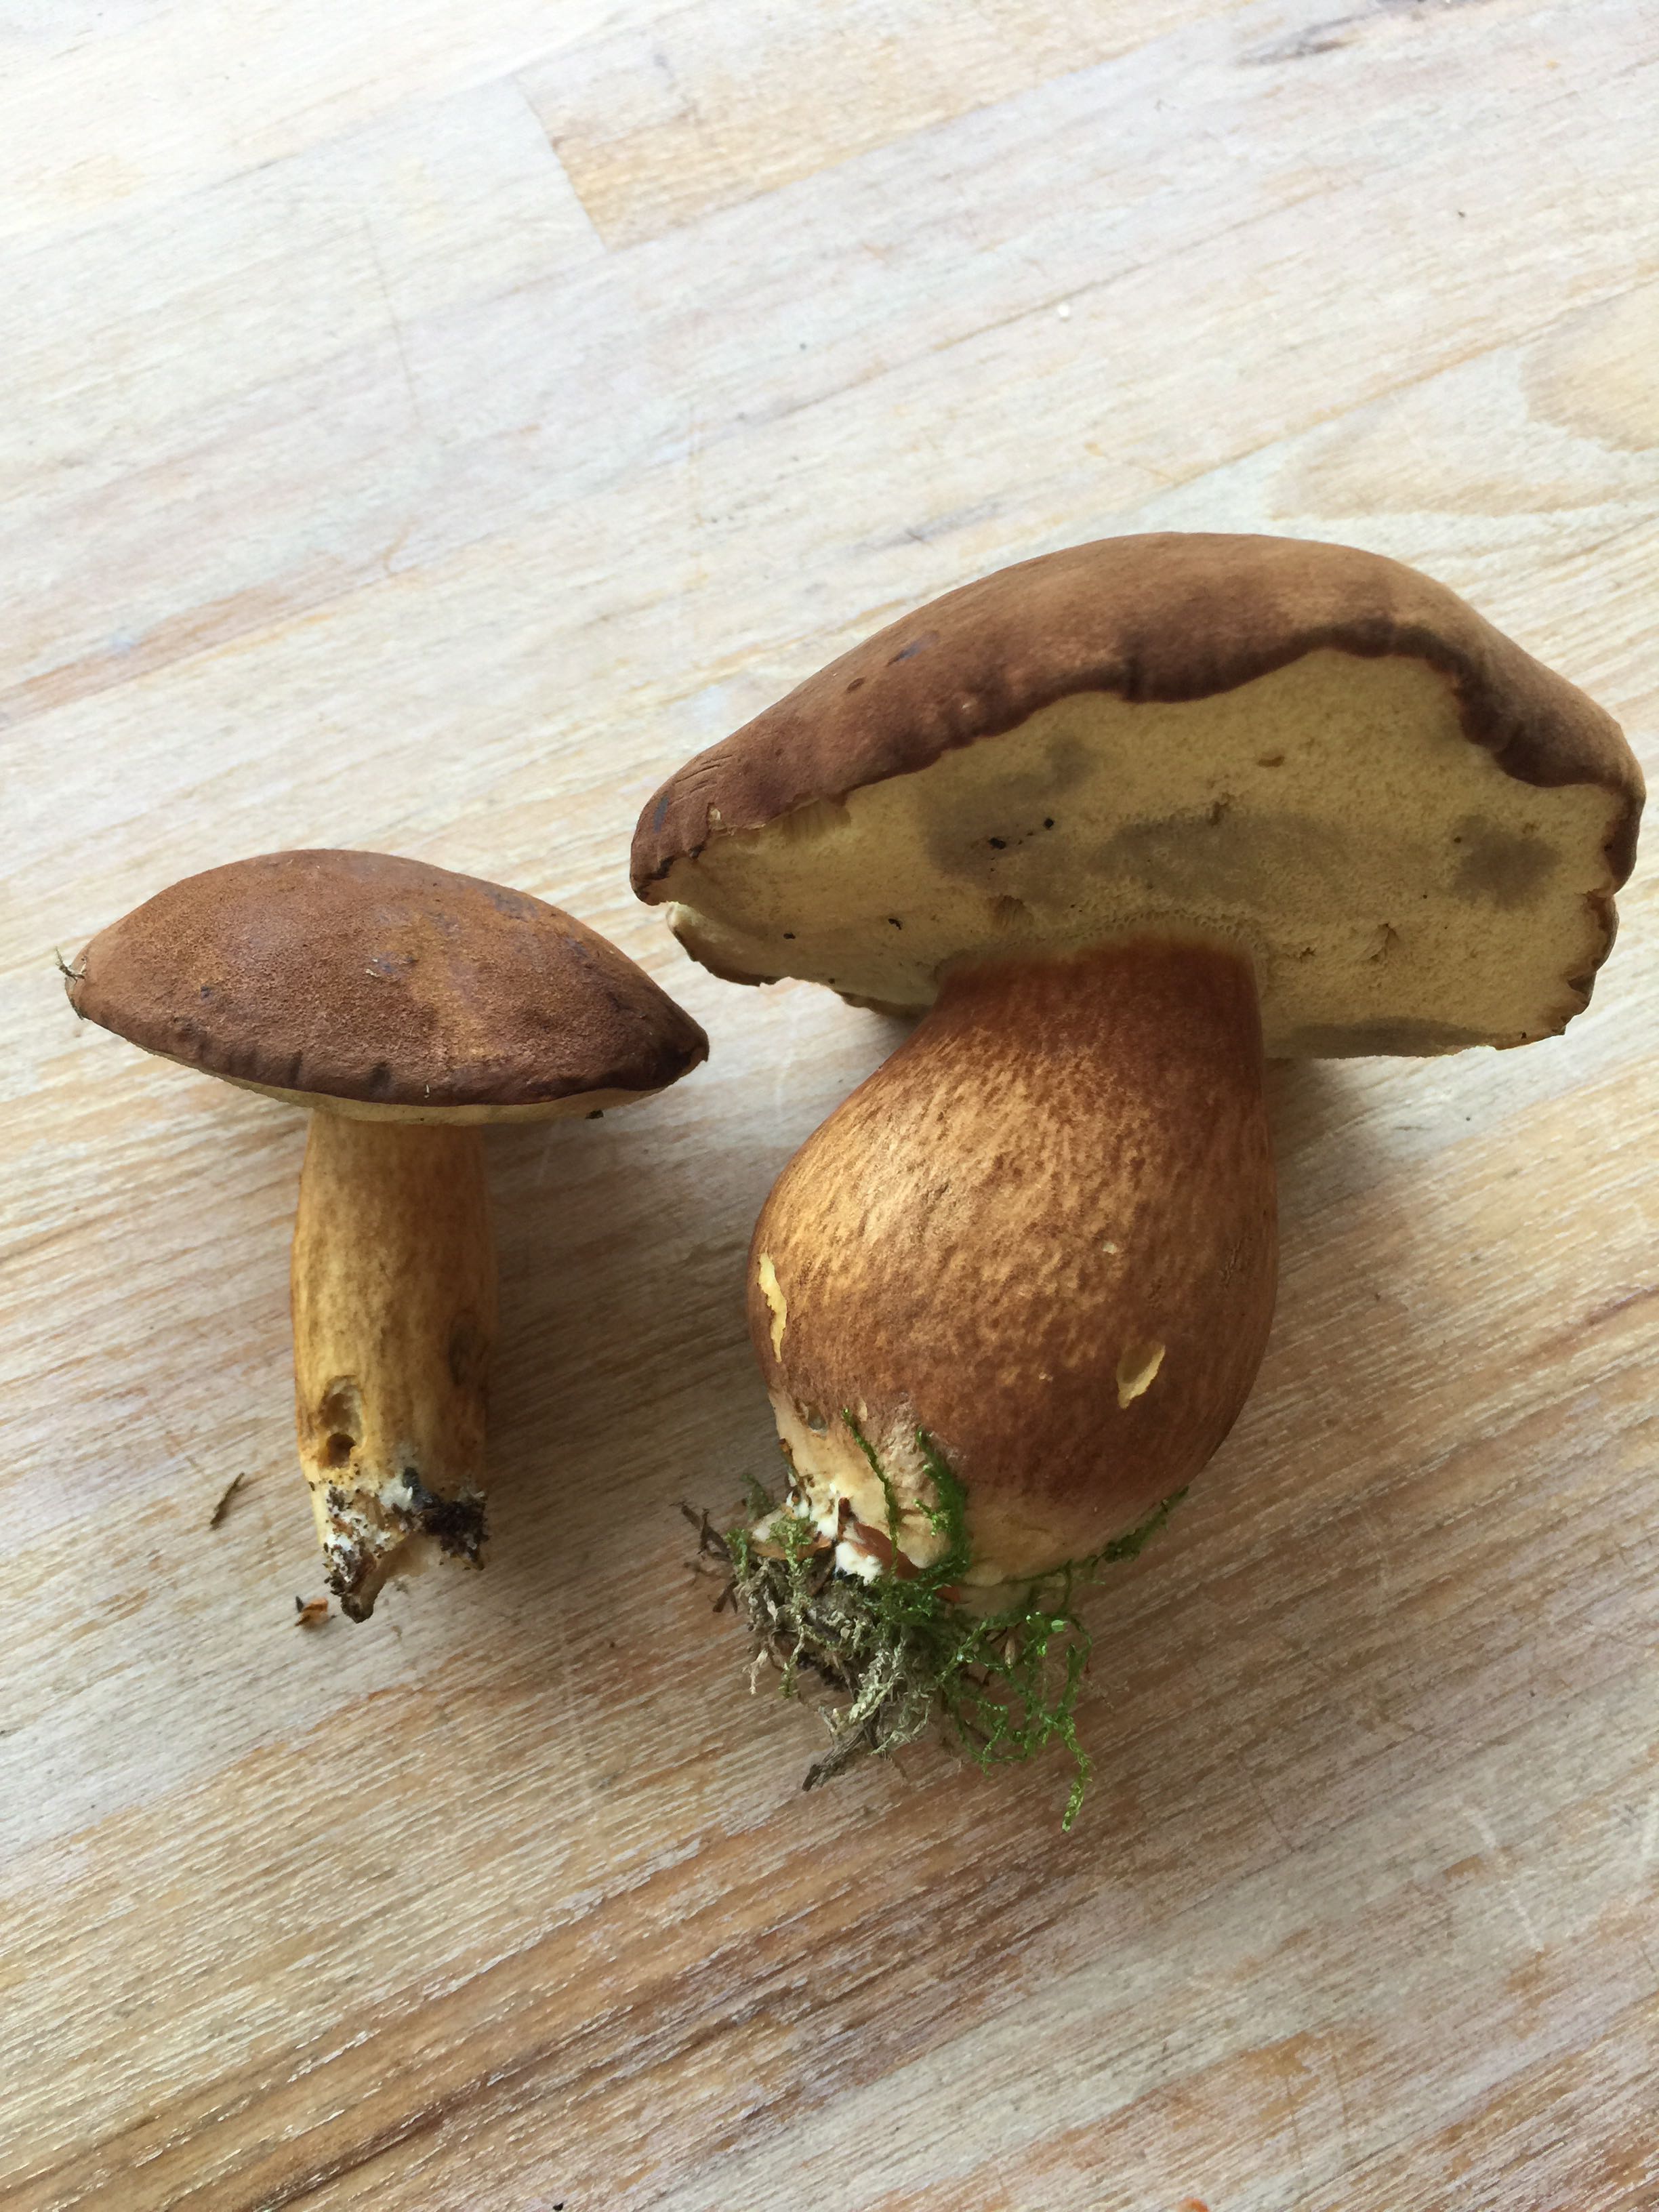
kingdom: Fungi
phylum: Basidiomycota
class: Agaricomycetes
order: Boletales
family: Boletaceae
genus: Imleria
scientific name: Imleria badia
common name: brunstokket rørhat
